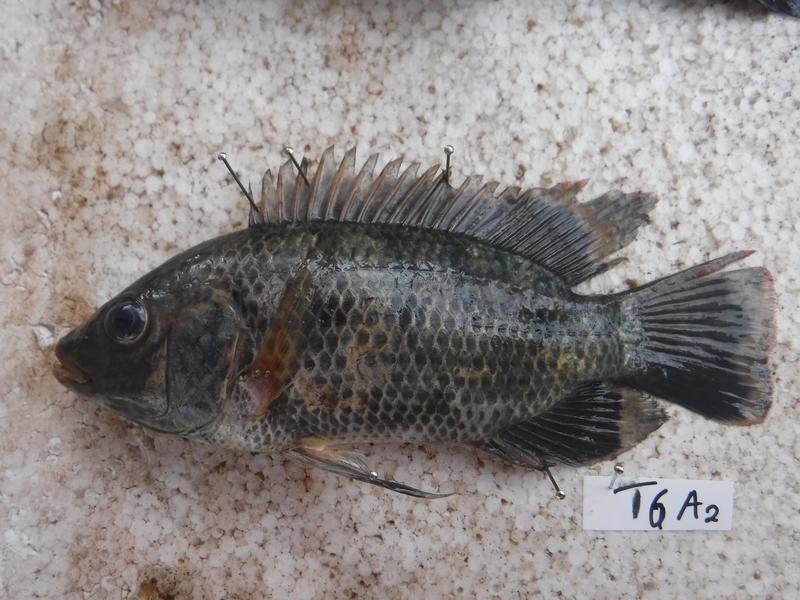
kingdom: Animalia
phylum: Chordata
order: Perciformes
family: Cichlidae
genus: Oreochromis
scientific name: Oreochromis urolepis
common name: Wami tilapia
